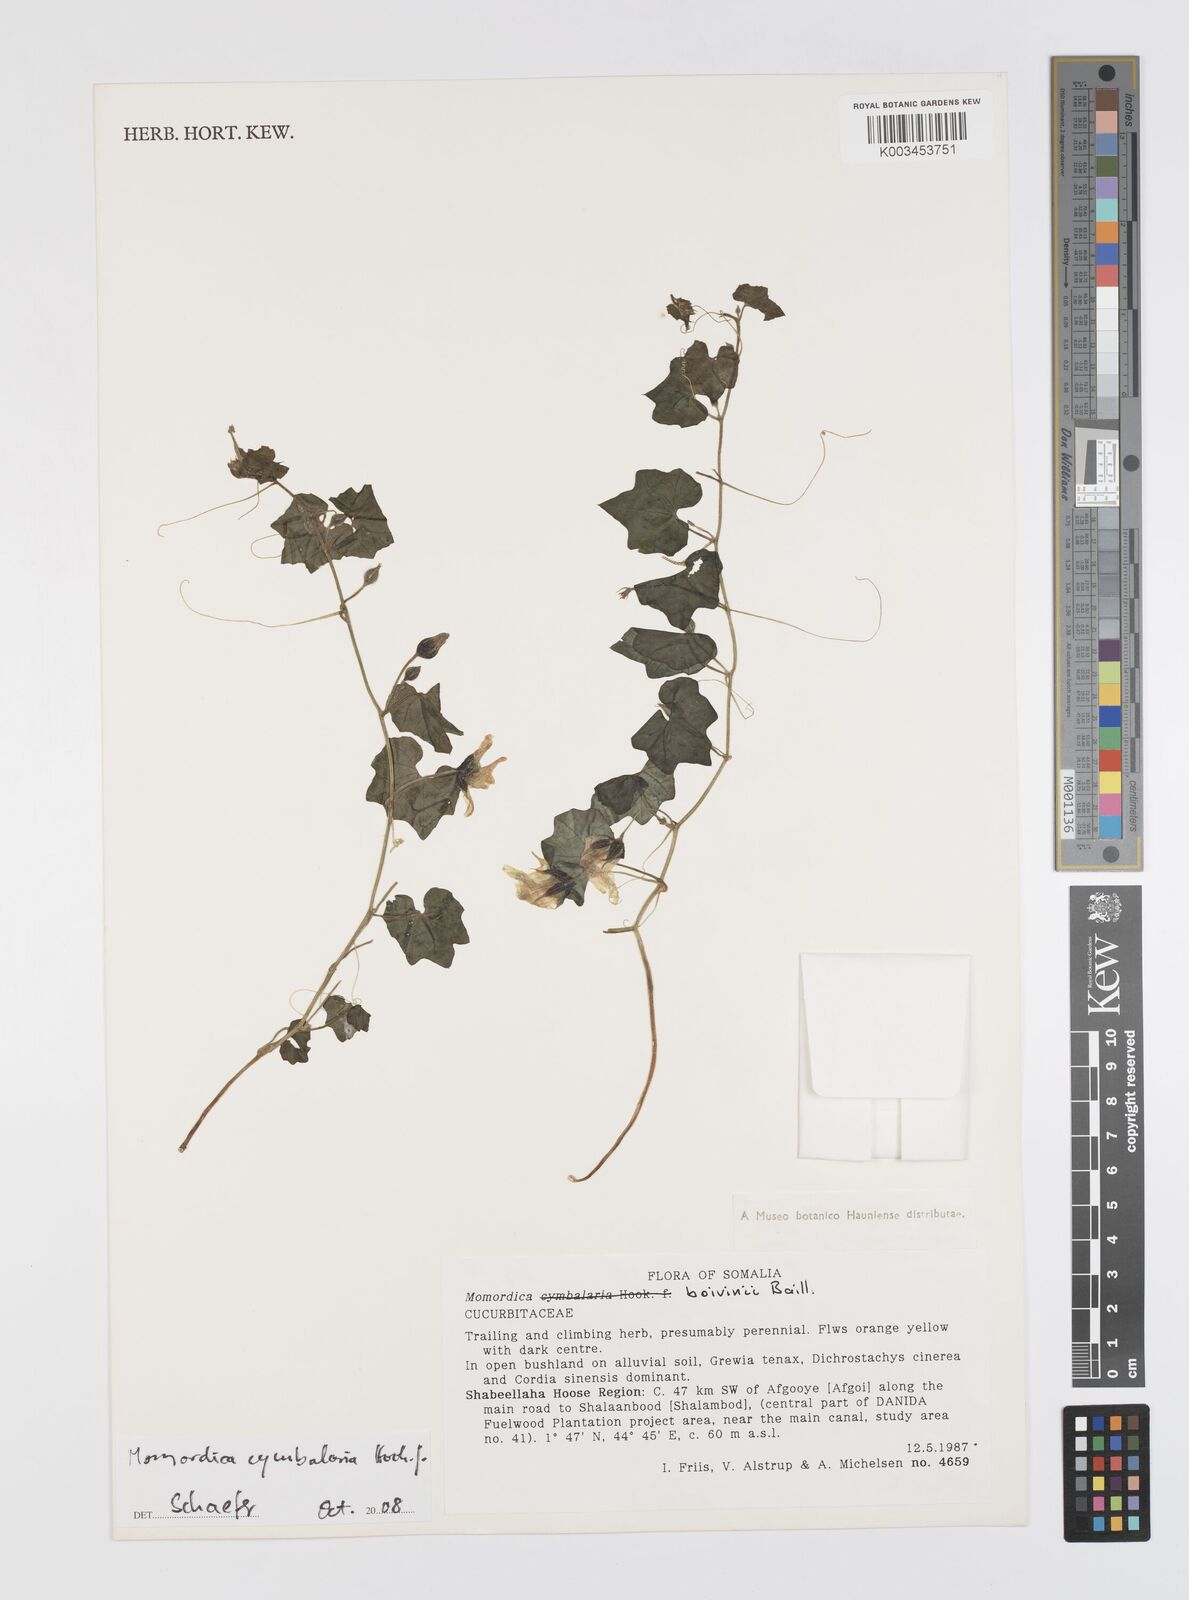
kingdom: Plantae
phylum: Tracheophyta
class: Magnoliopsida
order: Cucurbitales
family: Cucurbitaceae
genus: Momordica
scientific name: Momordica boivinii
